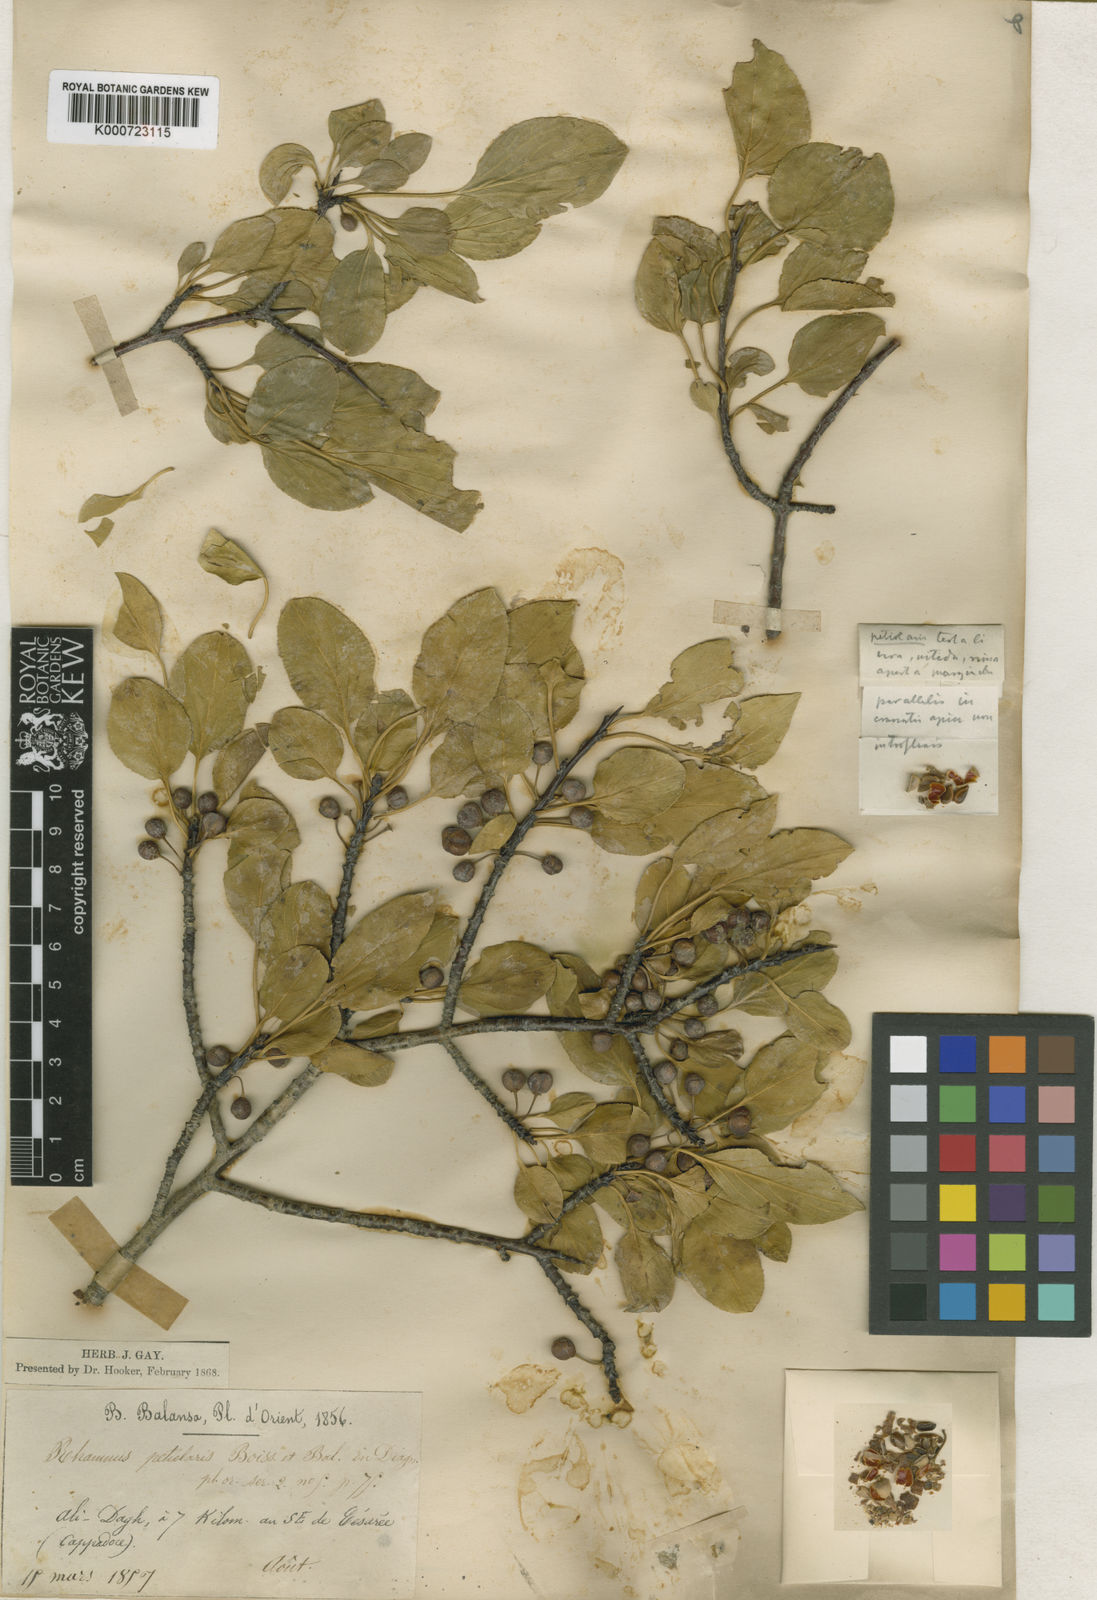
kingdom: Plantae
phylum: Tracheophyta
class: Magnoliopsida
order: Rosales
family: Rhamnaceae
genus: Rhamnus
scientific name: Rhamnus petiolaris
